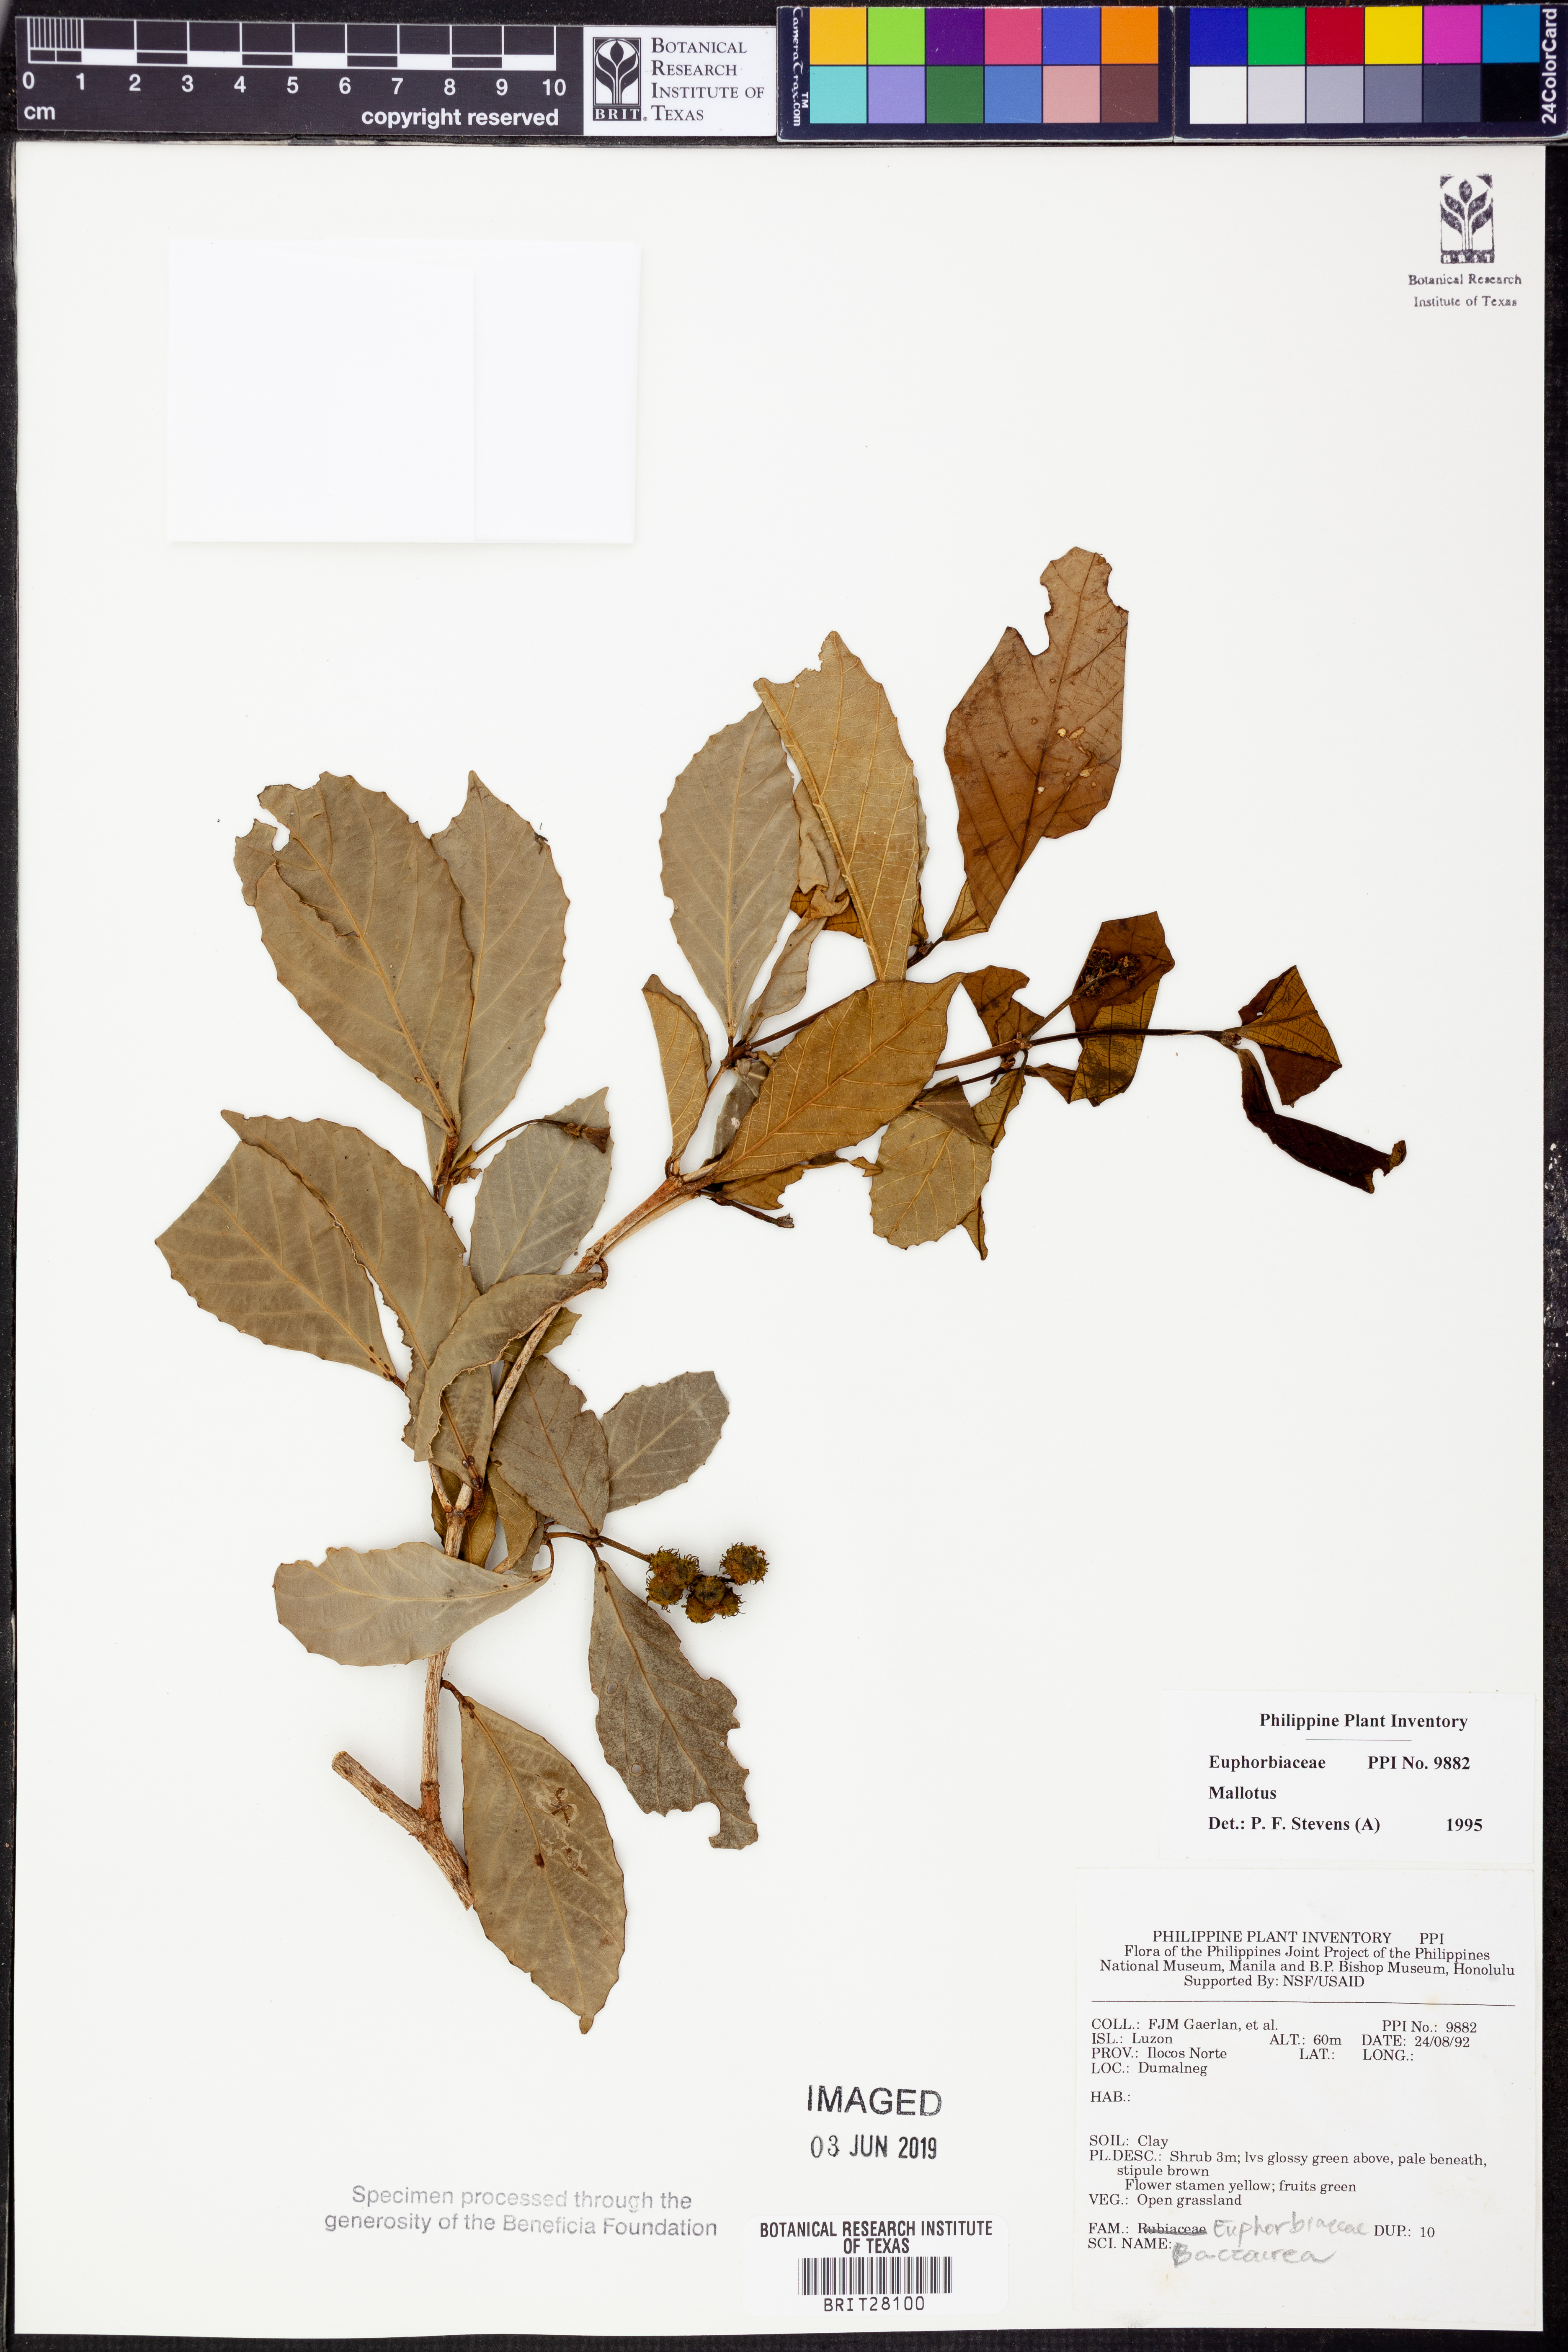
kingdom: Plantae
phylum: Tracheophyta
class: Magnoliopsida
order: Malpighiales
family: Euphorbiaceae
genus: Mallotus
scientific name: Mallotus
